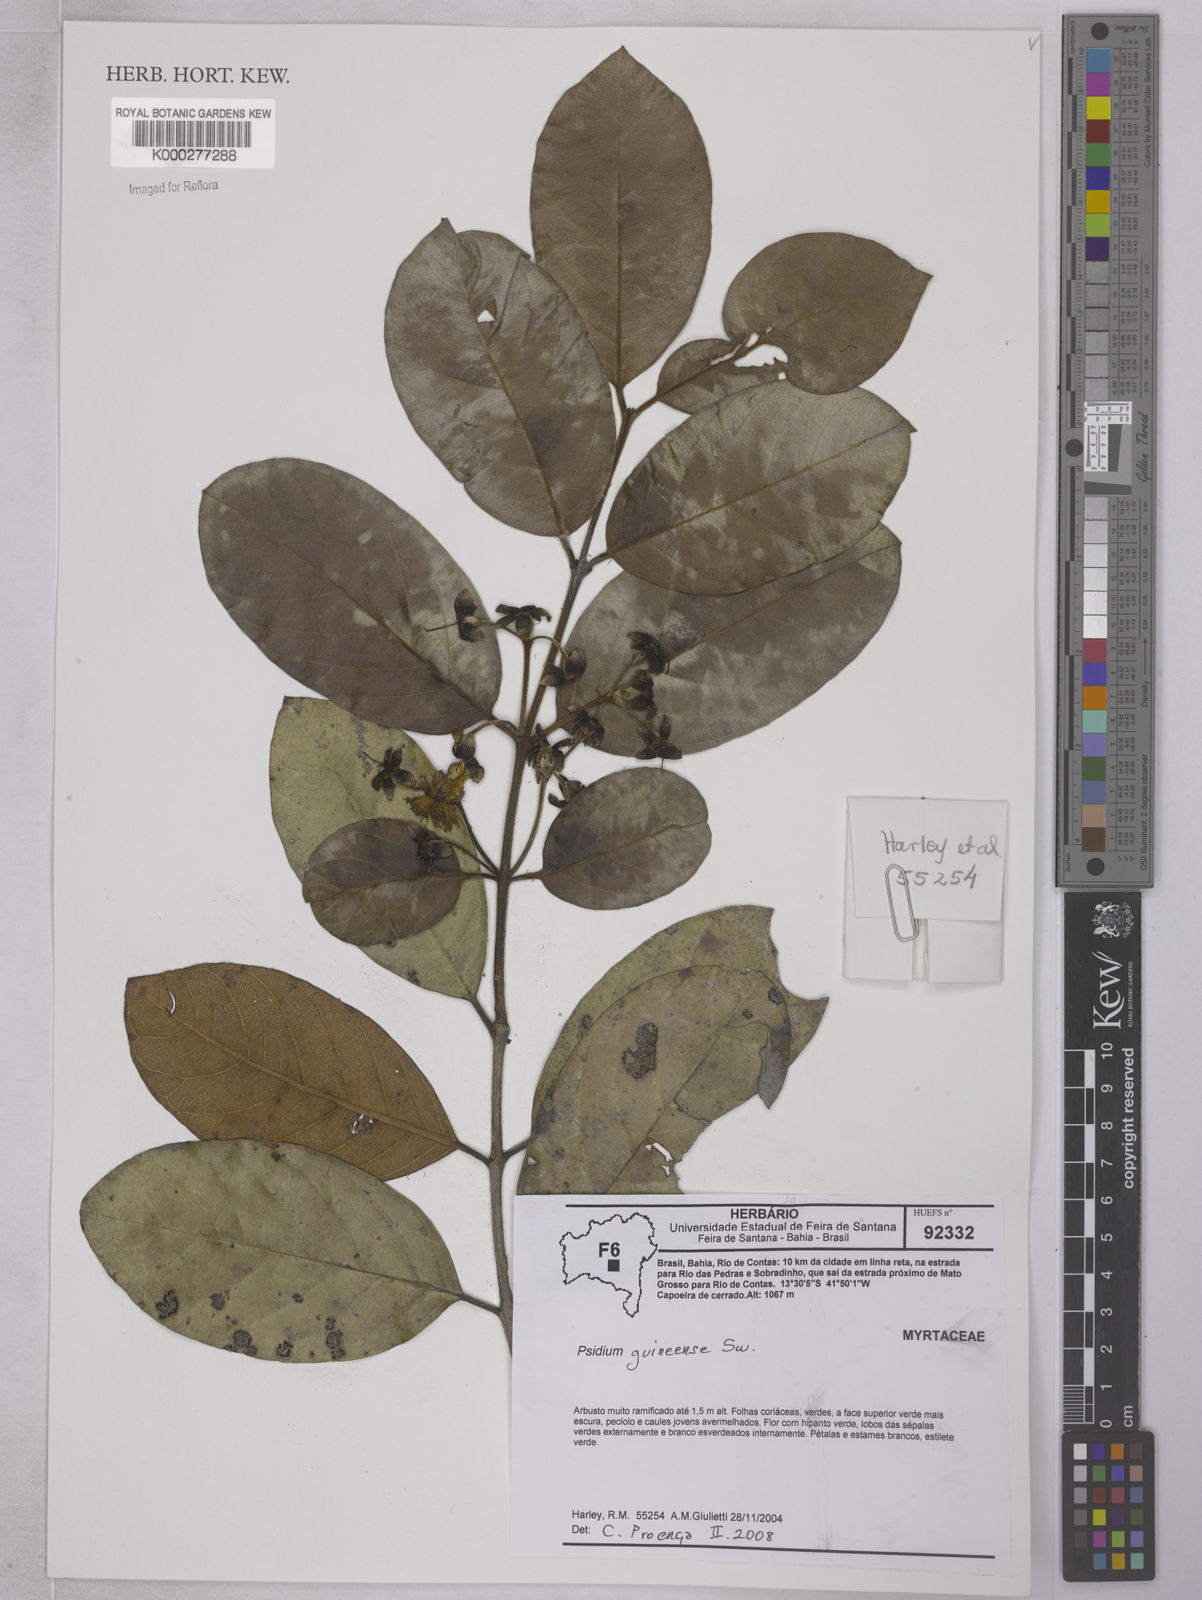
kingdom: Plantae
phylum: Tracheophyta
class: Magnoliopsida
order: Myrtales
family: Myrtaceae
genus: Psidium
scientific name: Psidium guineense
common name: Brazilian guava
